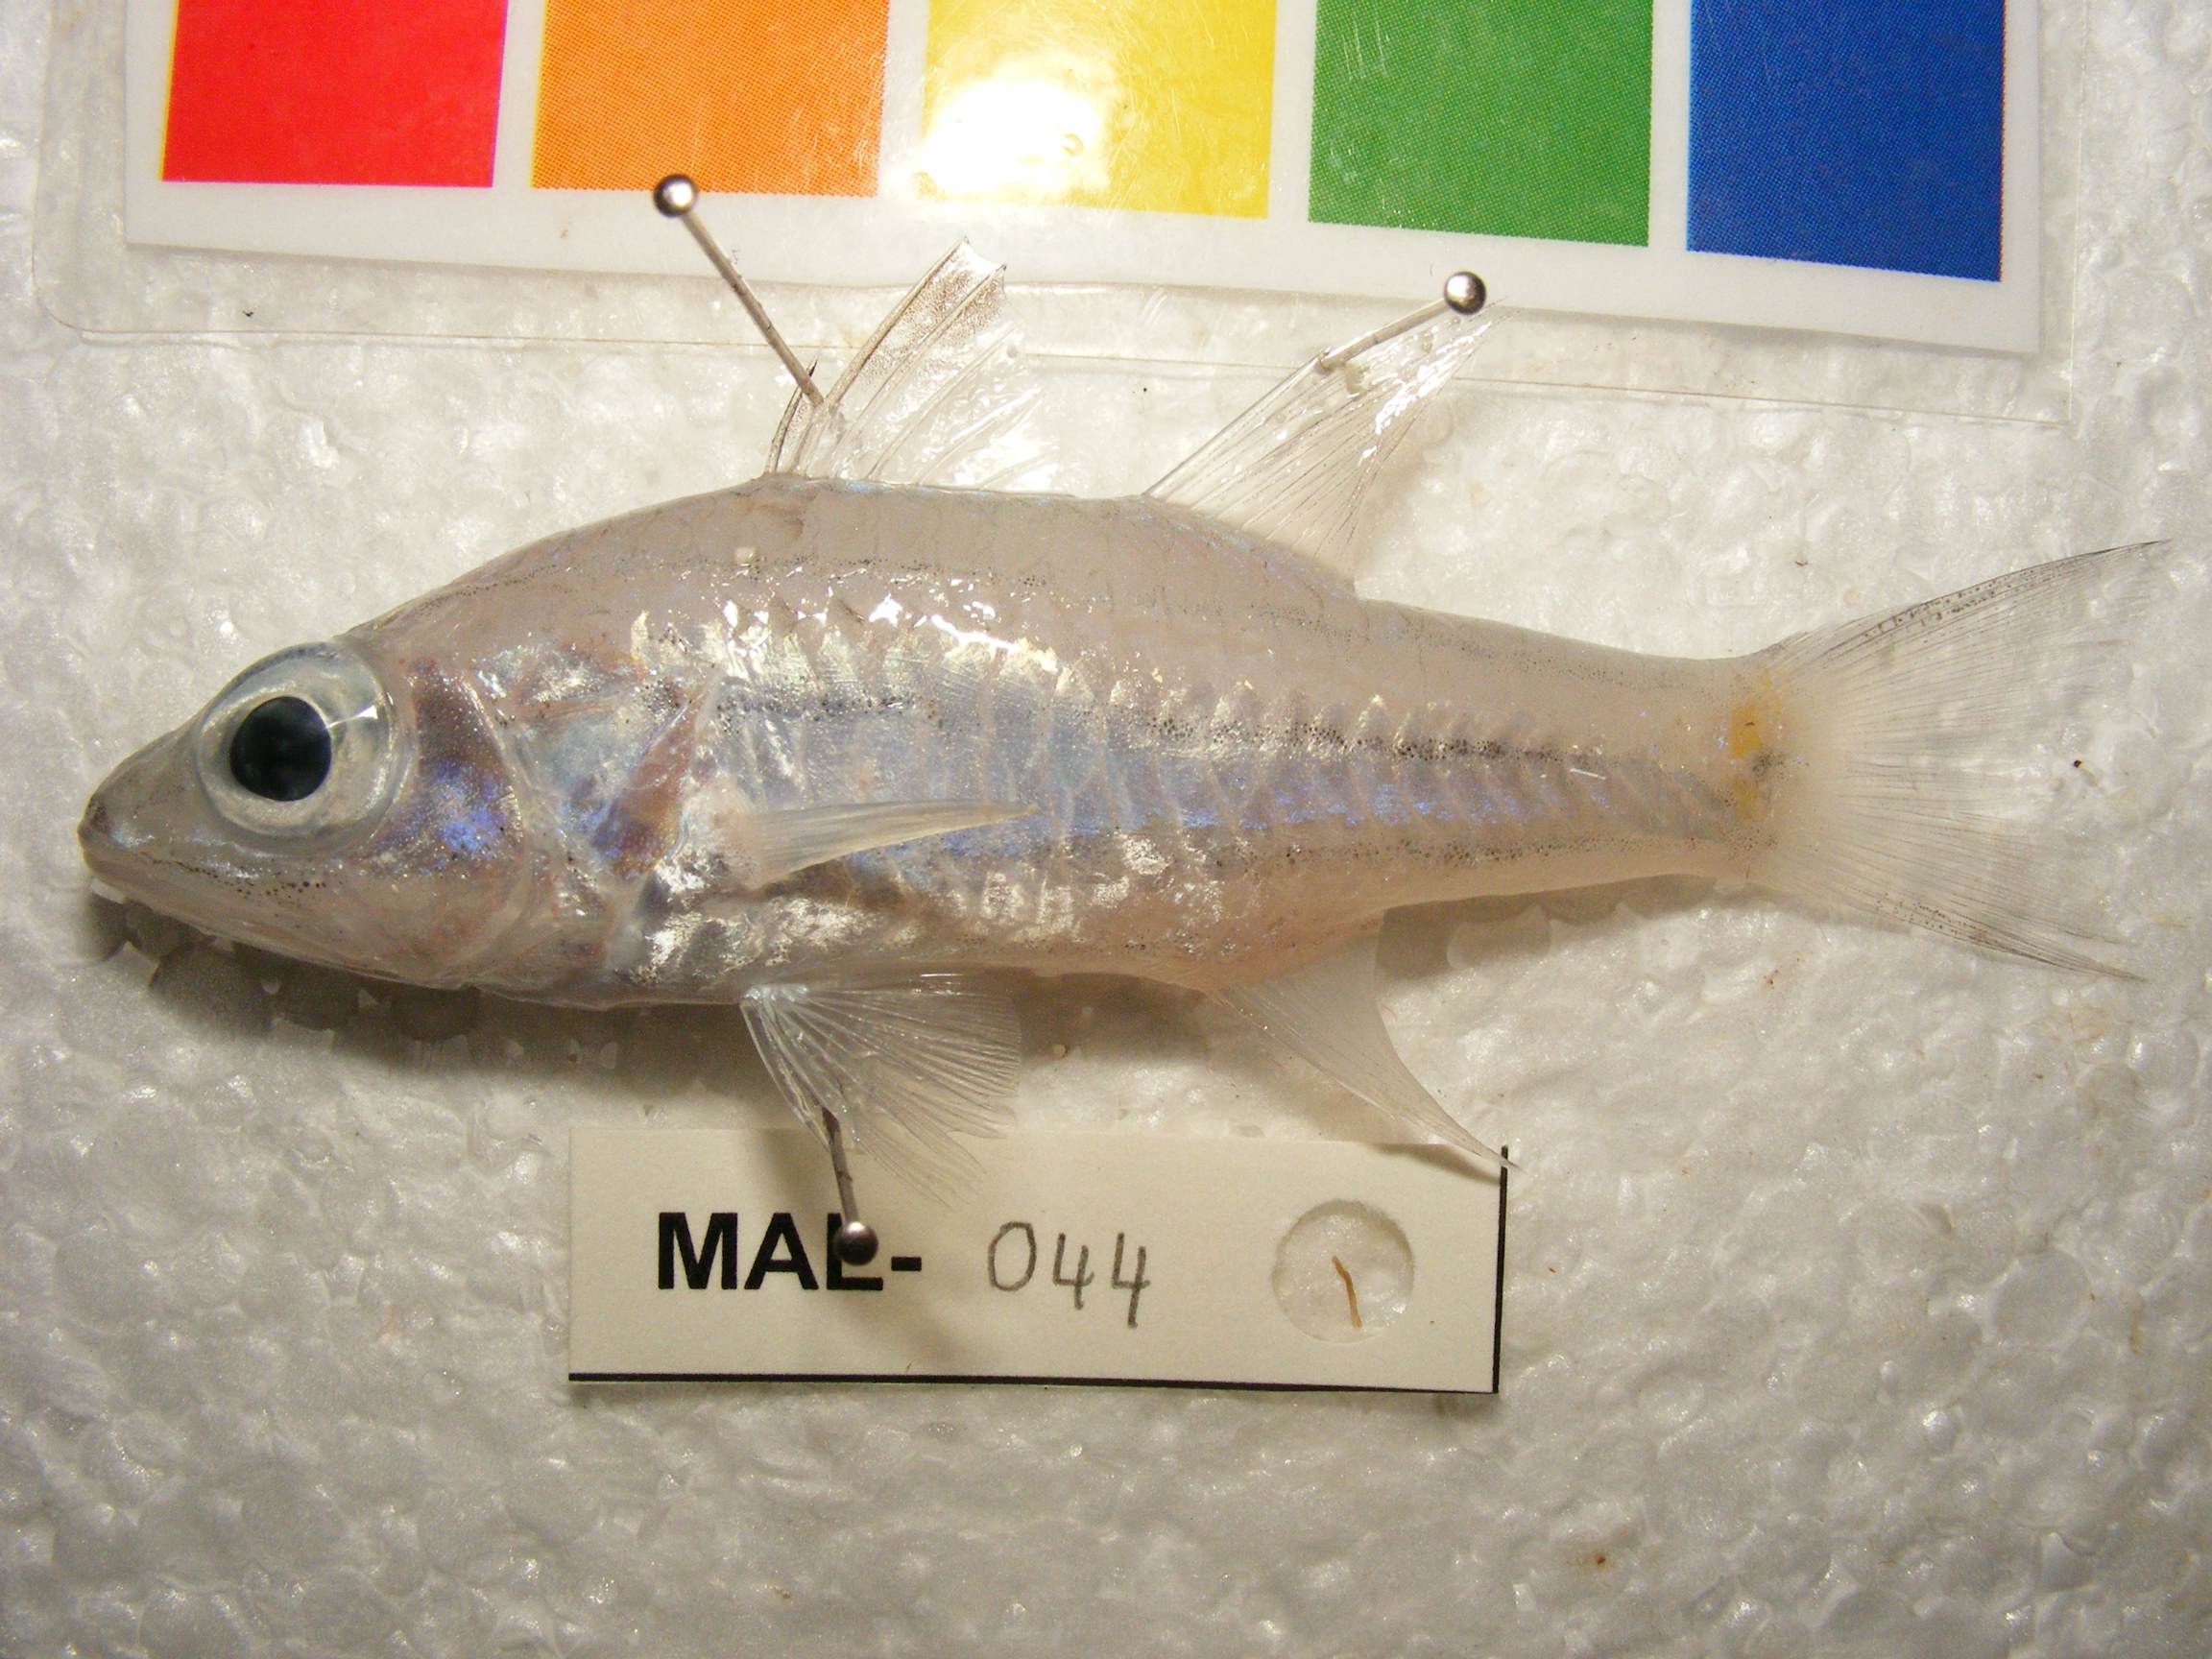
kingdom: Animalia
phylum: Chordata
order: Perciformes
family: Apogonidae
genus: Cheilodipterus
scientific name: Cheilodipterus quinquelineatus
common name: Five-lined cardinalfish
